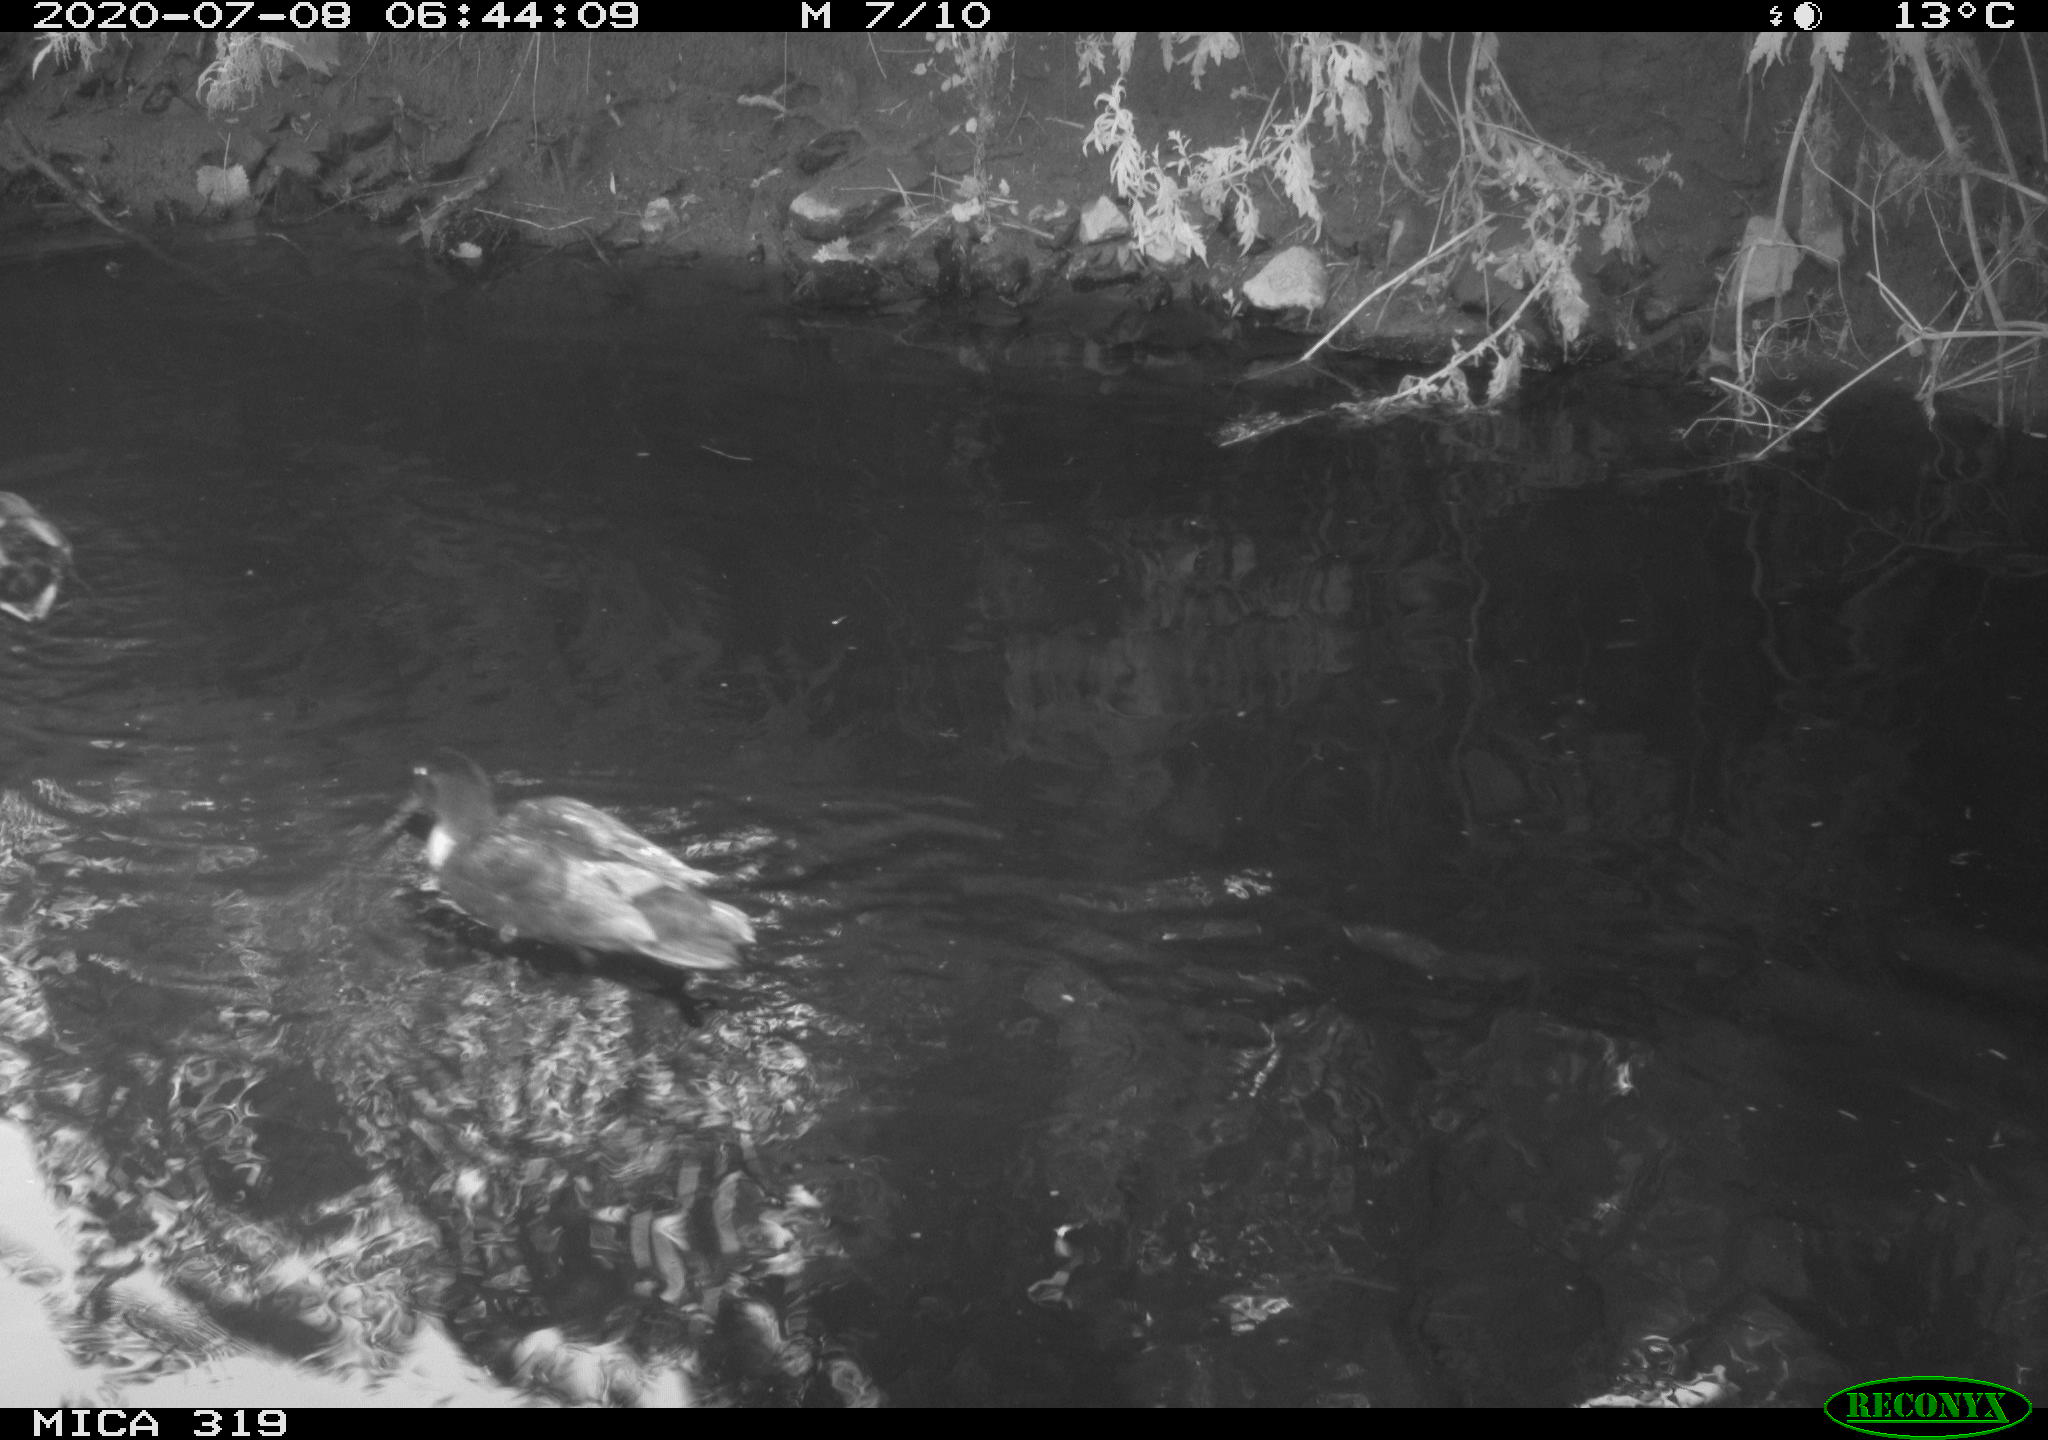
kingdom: Animalia
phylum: Chordata
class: Aves
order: Anseriformes
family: Anatidae
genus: Anas
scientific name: Anas platyrhynchos
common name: Mallard
